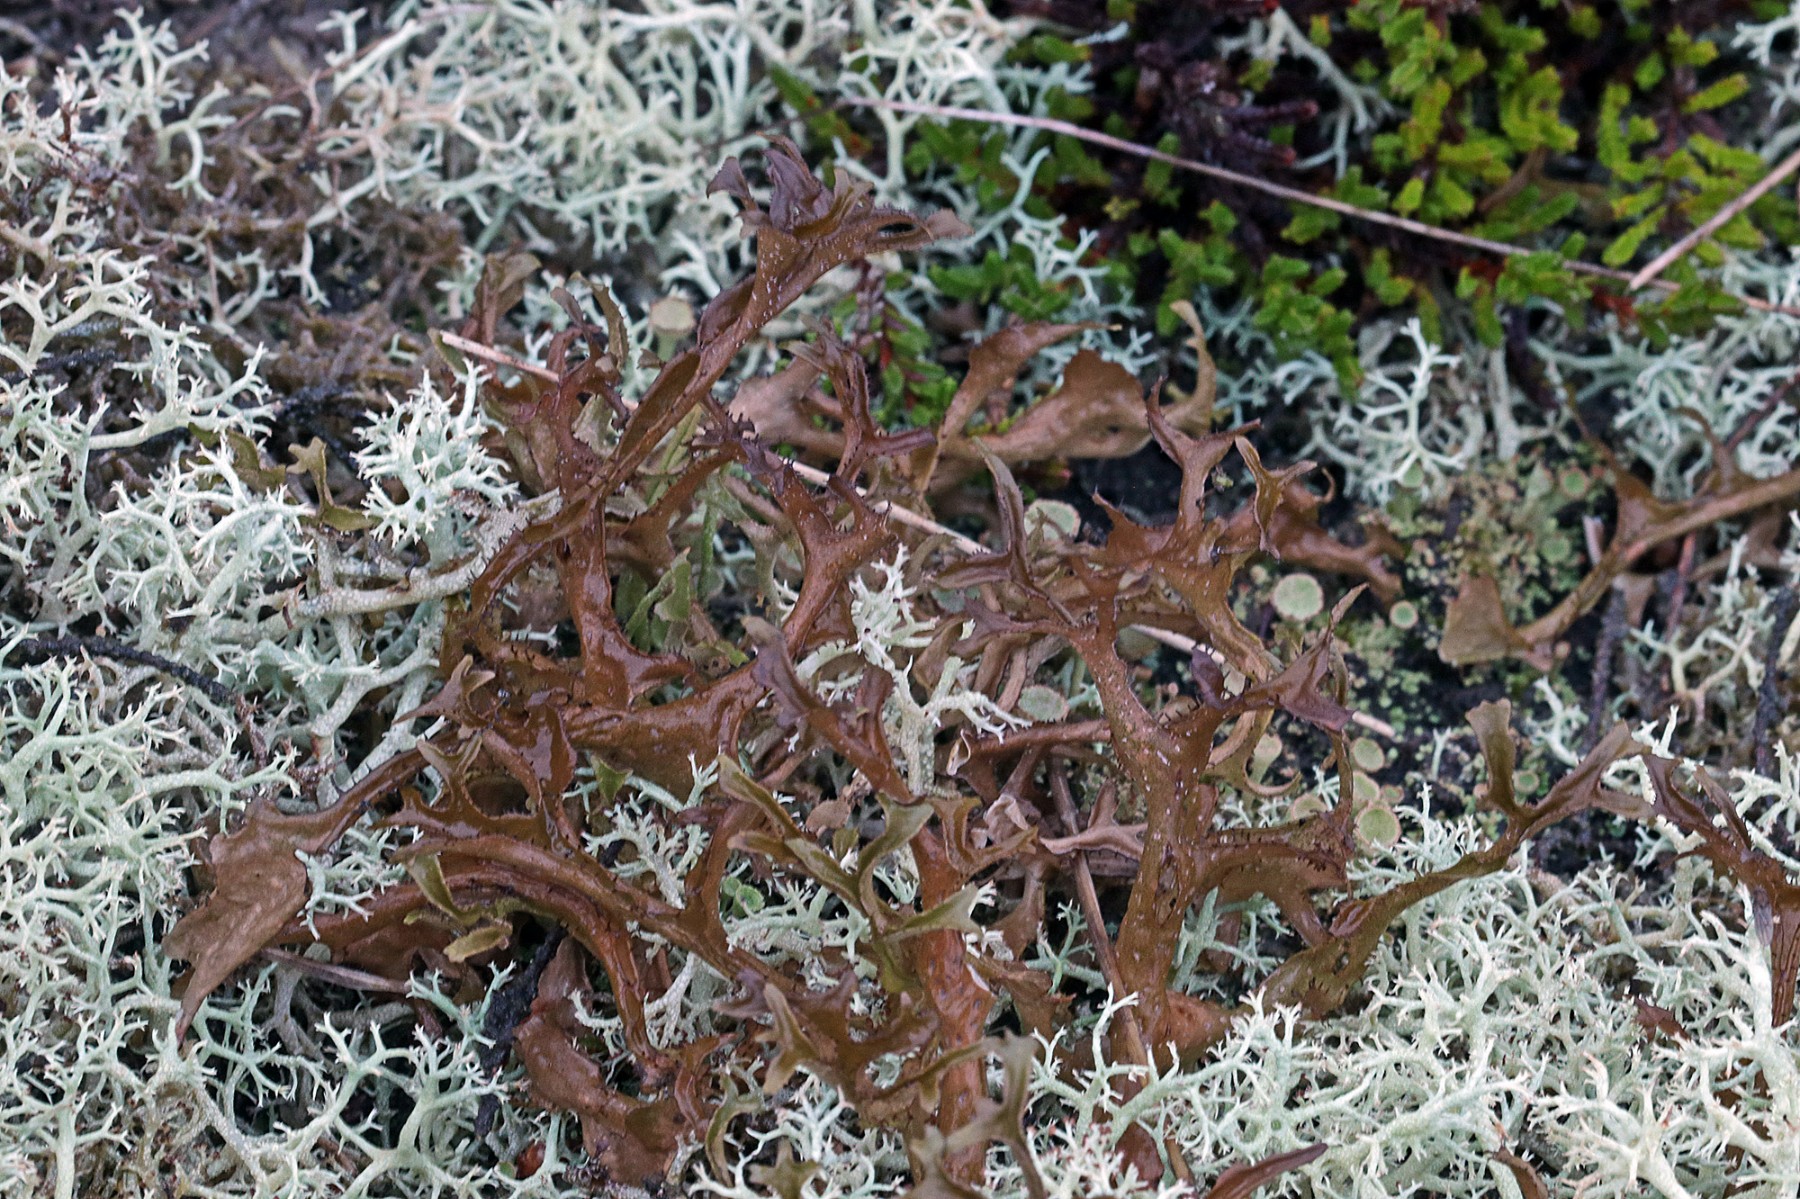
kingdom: Fungi
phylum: Ascomycota
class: Lecanoromycetes
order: Lecanorales
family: Parmeliaceae
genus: Cetraria
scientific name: Cetraria islandica
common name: islandsk kruslav
